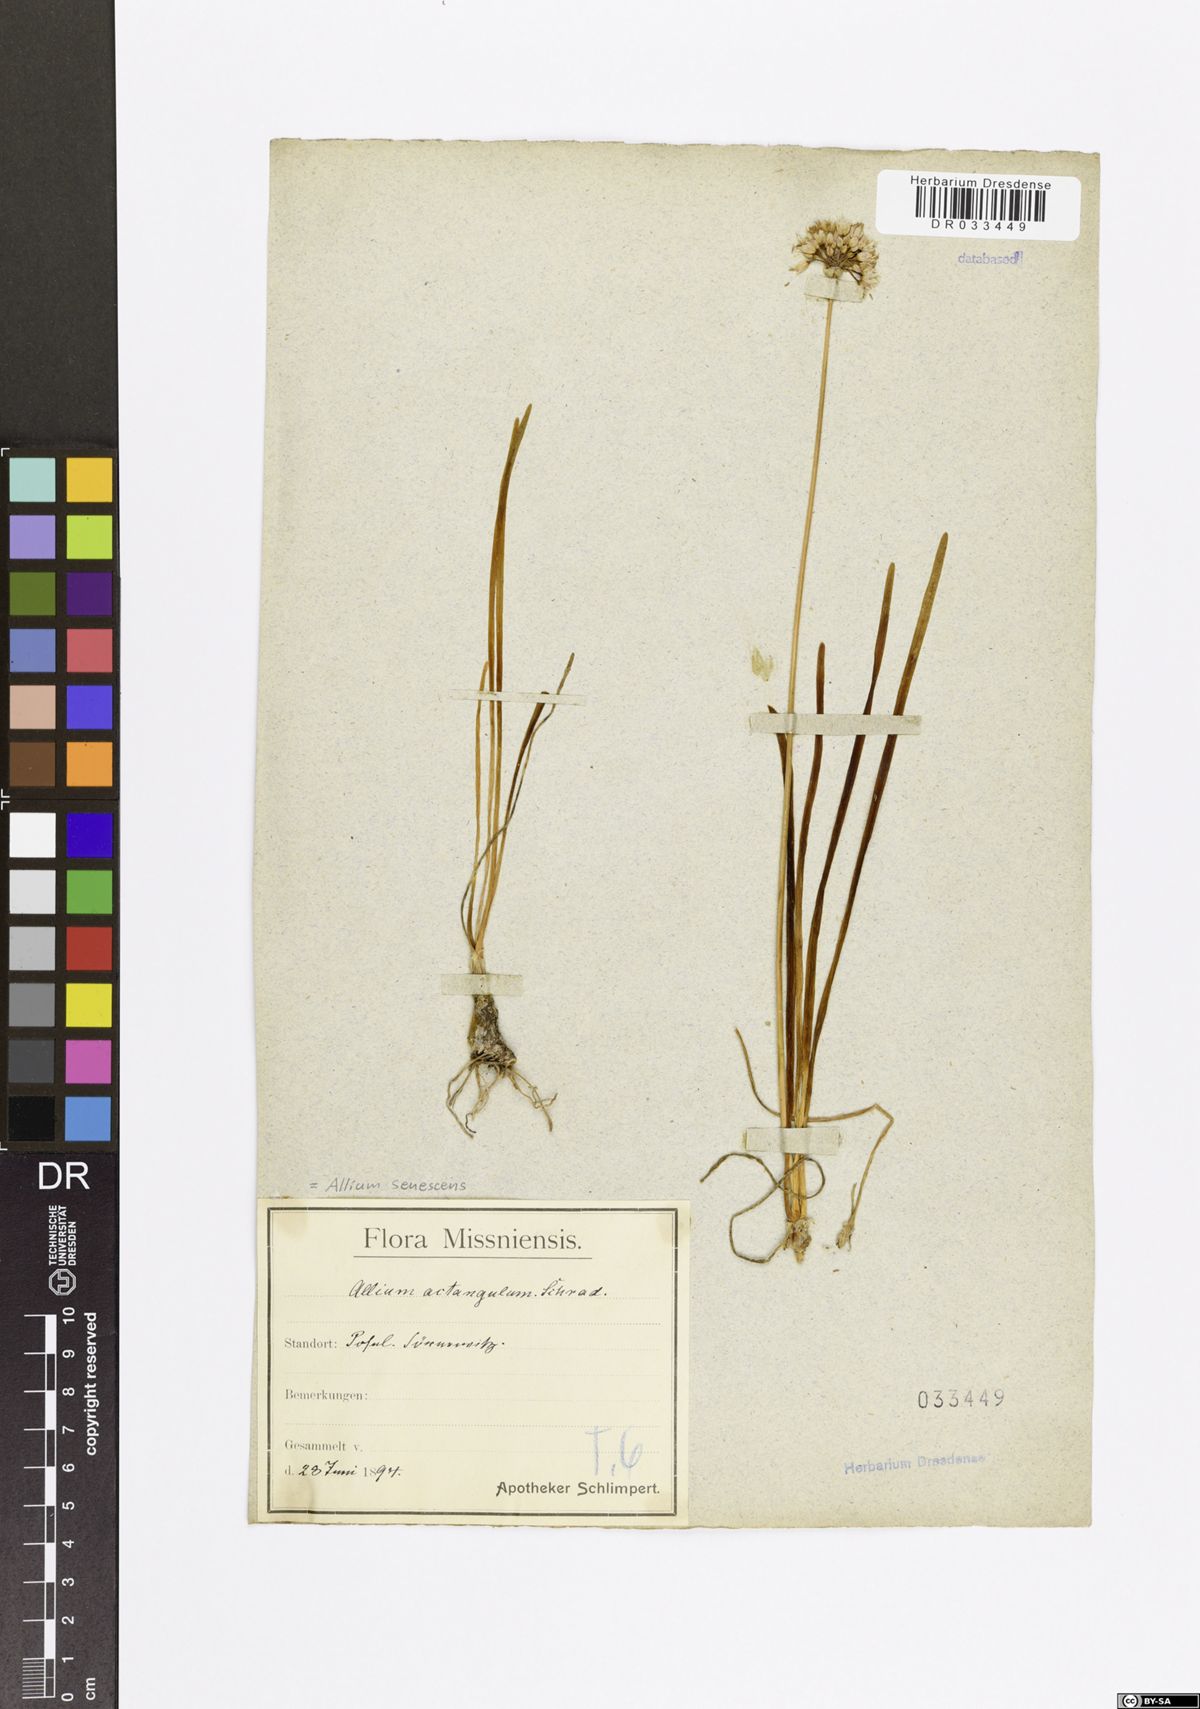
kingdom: Plantae
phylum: Tracheophyta
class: Liliopsida
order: Asparagales
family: Amaryllidaceae
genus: Allium
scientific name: Allium senescens
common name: German garlic
